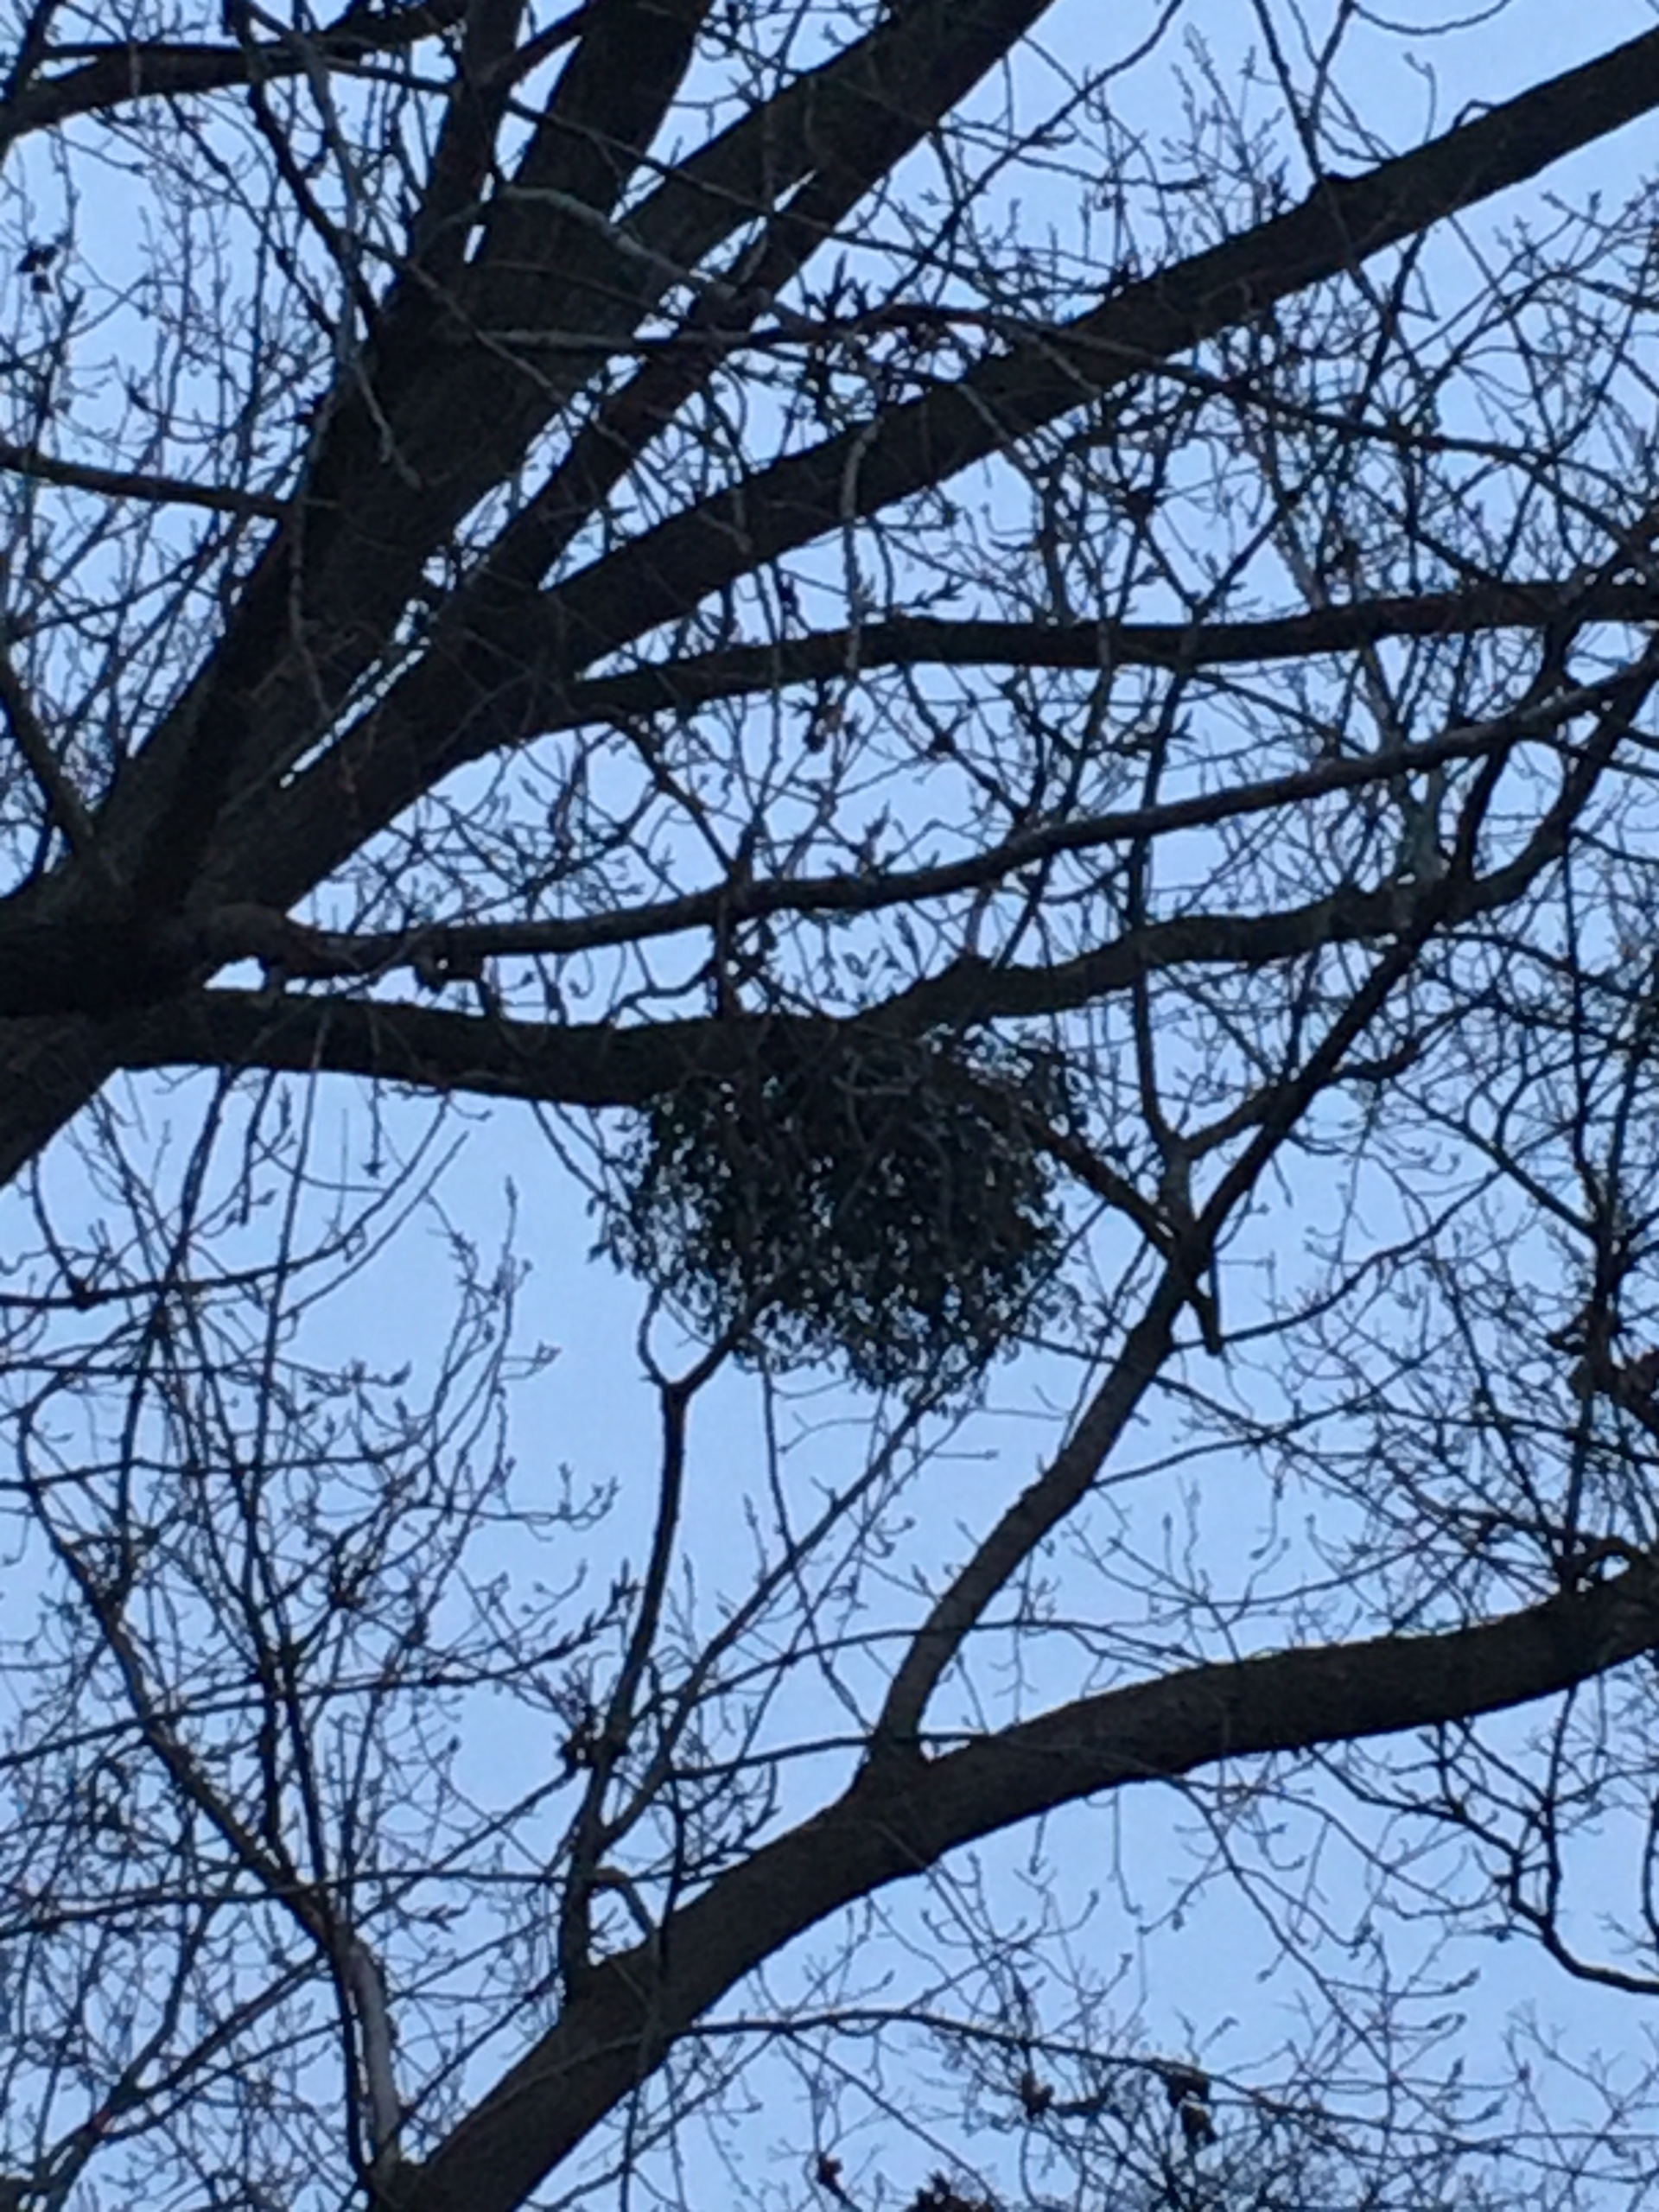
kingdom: Plantae
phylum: Tracheophyta
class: Magnoliopsida
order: Santalales
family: Viscaceae
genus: Viscum
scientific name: Viscum album
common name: Mistelten
